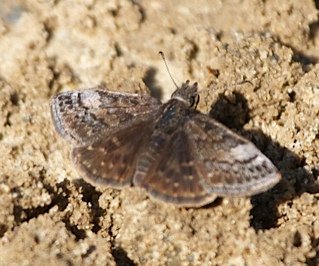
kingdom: Animalia
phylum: Arthropoda
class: Insecta
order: Lepidoptera
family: Hesperiidae
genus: Erynnis
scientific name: Erynnis icelus
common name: Dreamy Duskywing
